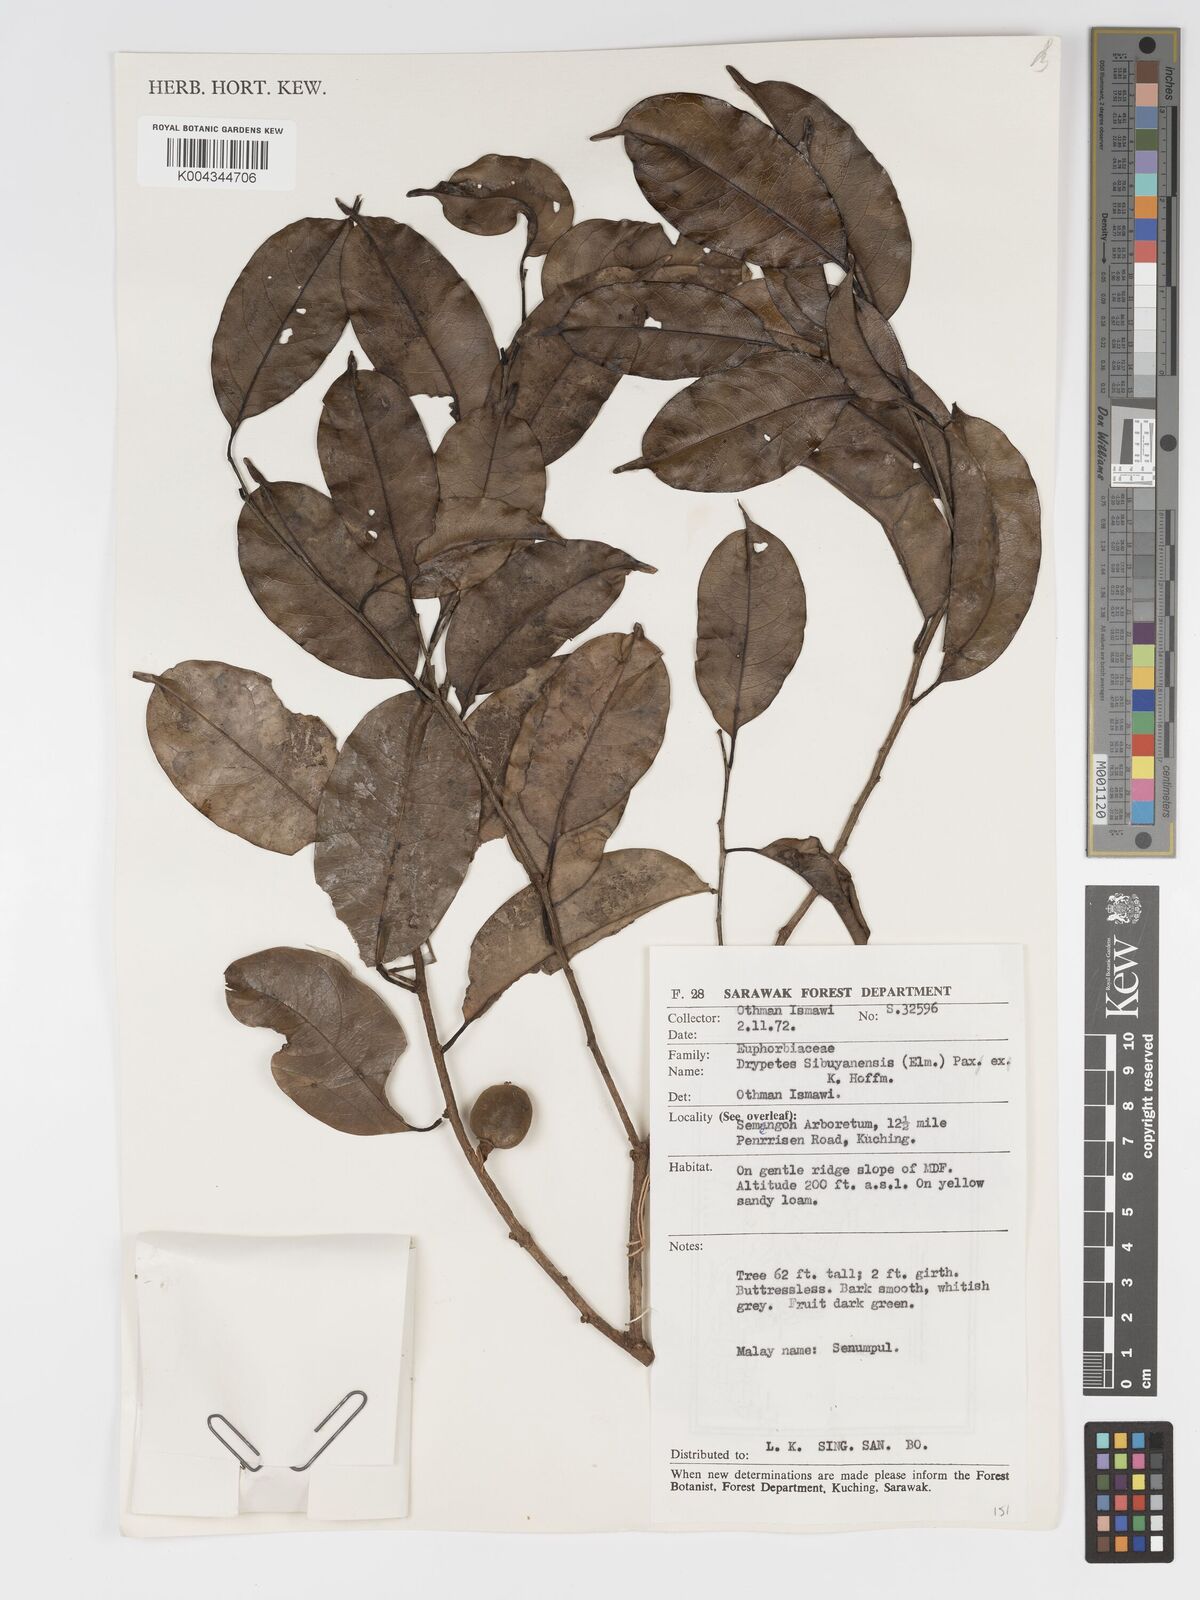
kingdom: Plantae
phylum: Tracheophyta
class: Magnoliopsida
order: Malpighiales
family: Putranjivaceae
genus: Drypetes
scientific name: Drypetes sibuyanensis
